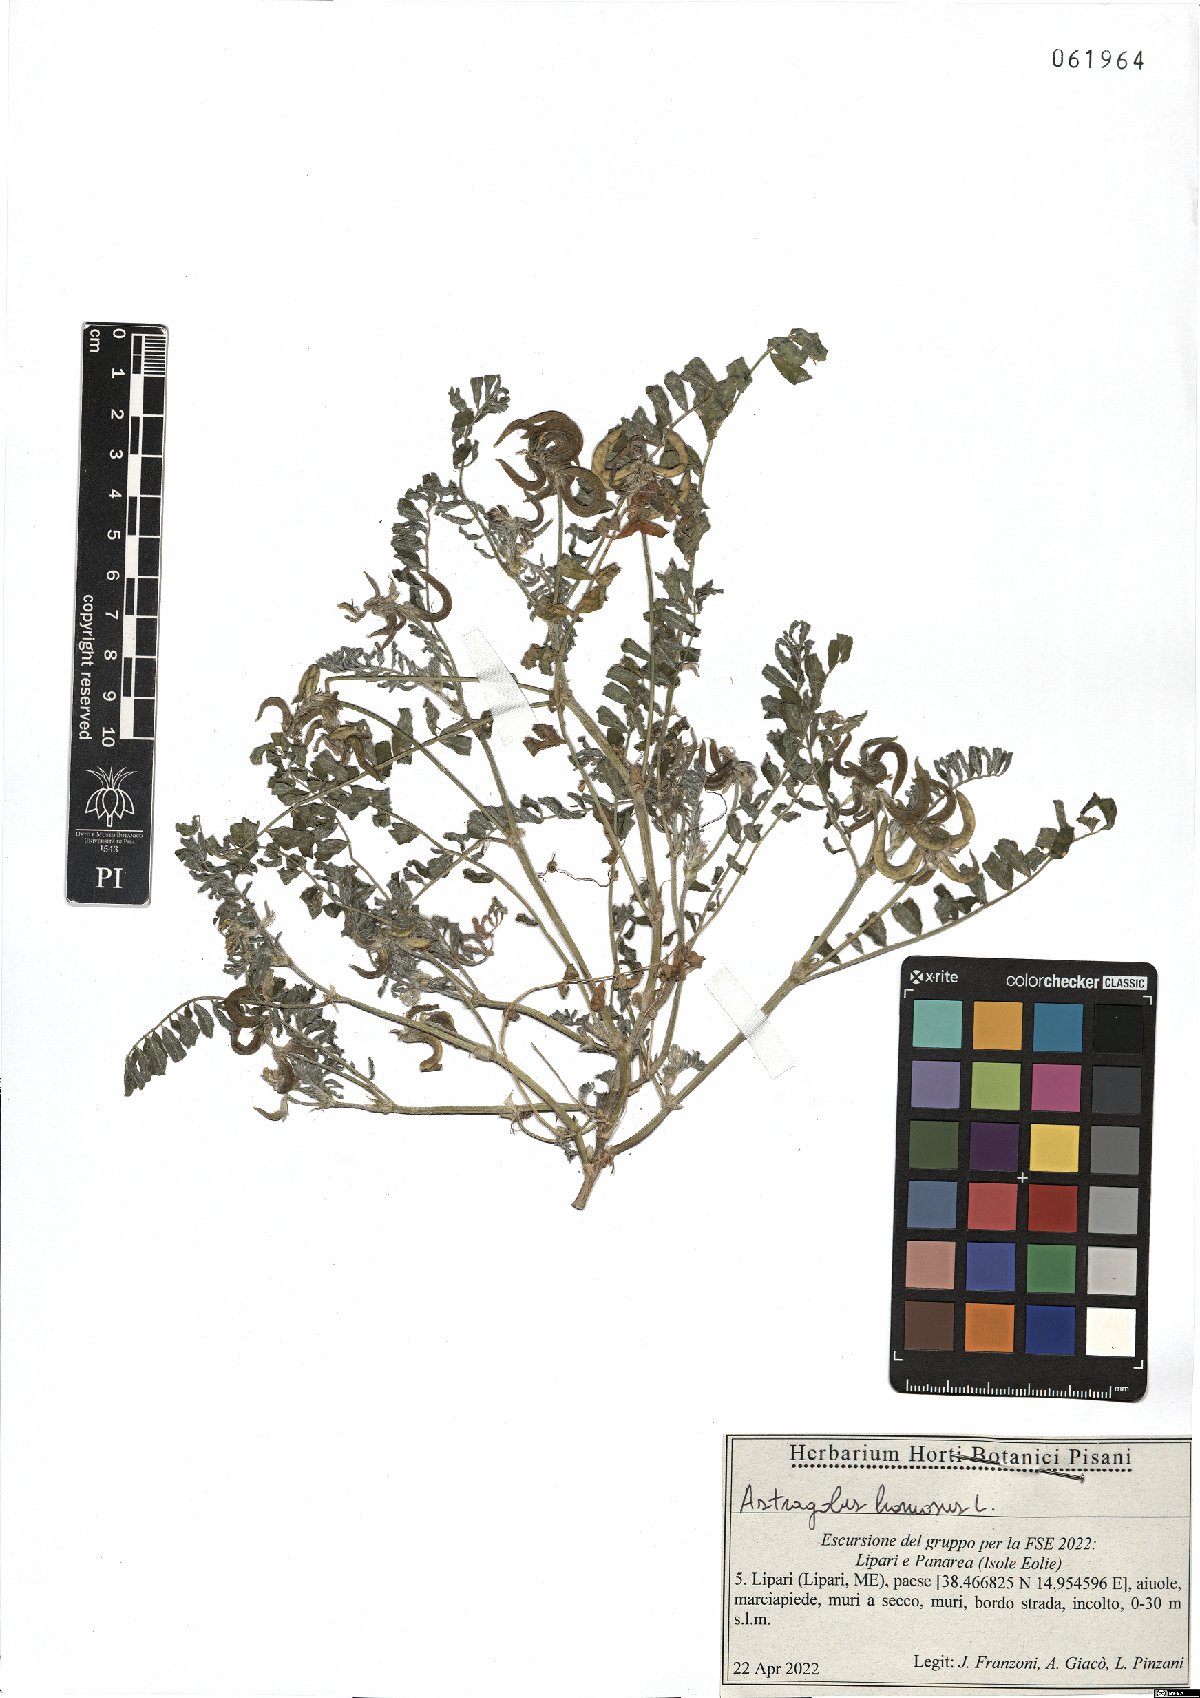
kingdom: Plantae
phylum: Tracheophyta
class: Magnoliopsida
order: Fabales
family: Fabaceae
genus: Astragalus
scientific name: Astragalus hamosus
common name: European milkvetch
